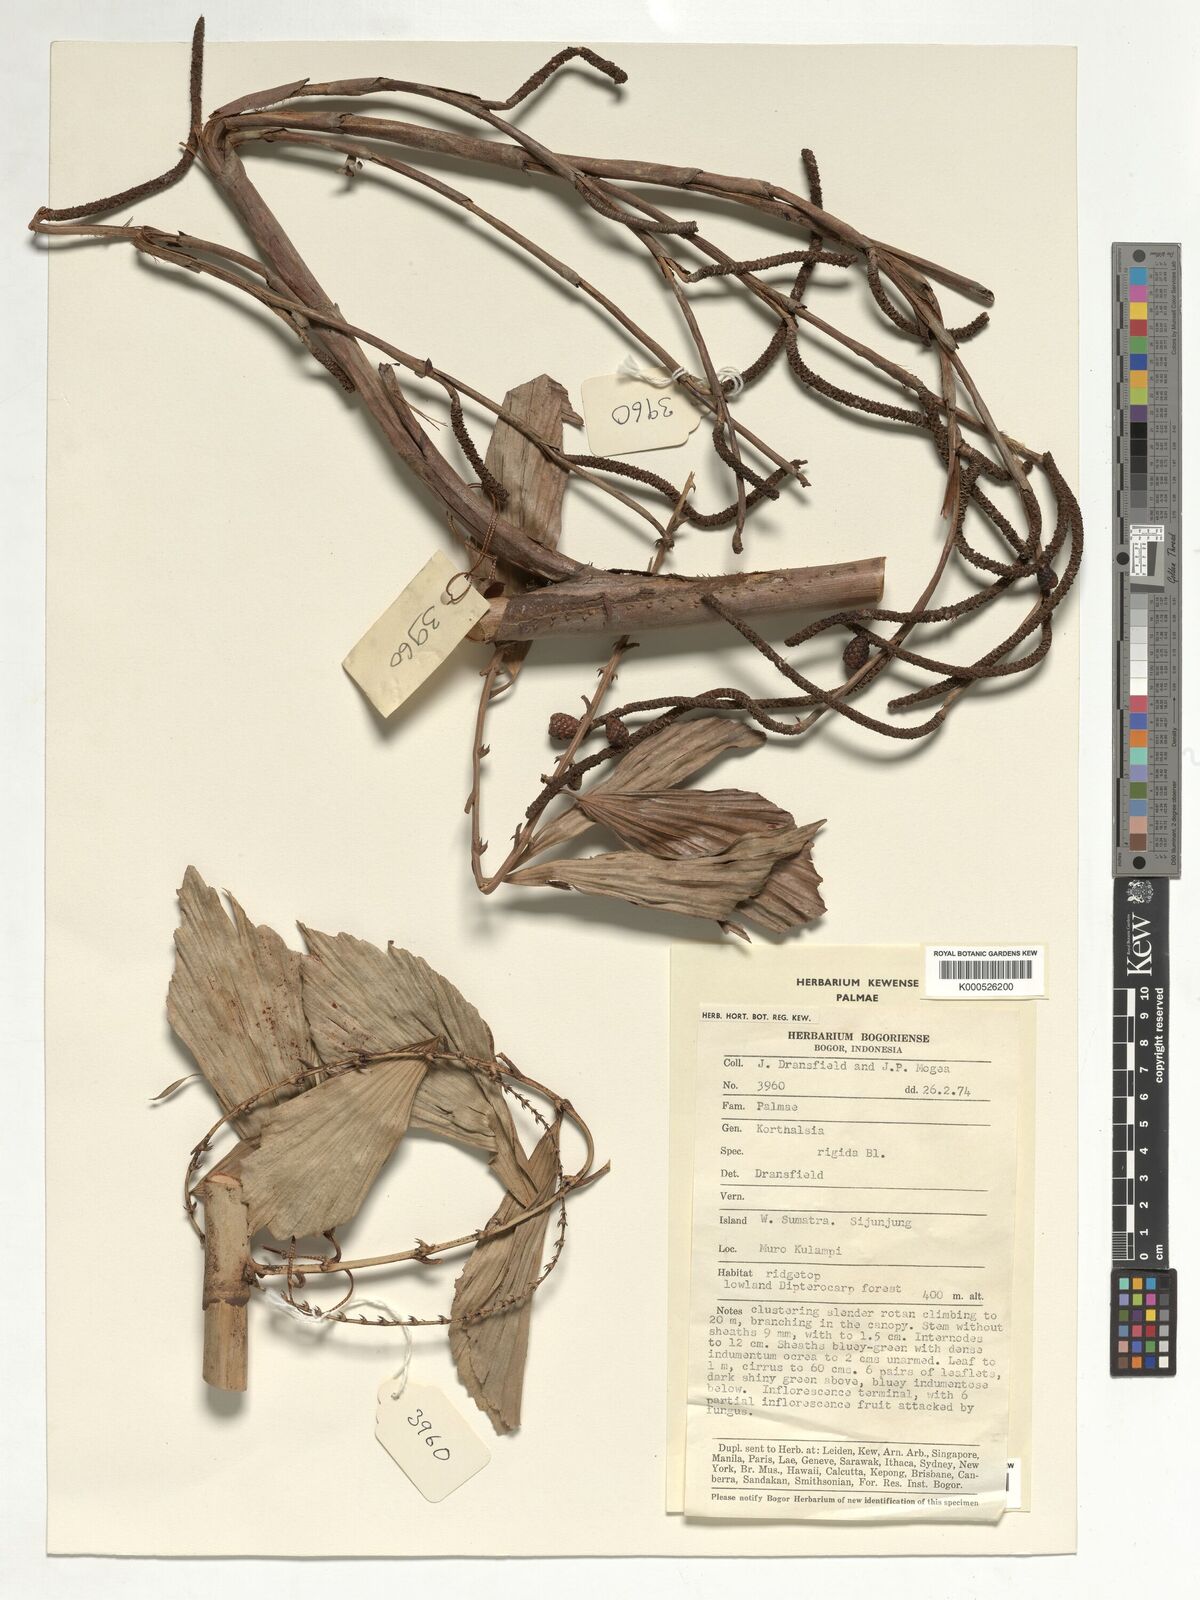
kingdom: Plantae
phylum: Tracheophyta
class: Liliopsida
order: Arecales
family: Arecaceae
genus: Korthalsia
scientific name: Korthalsia rigida
